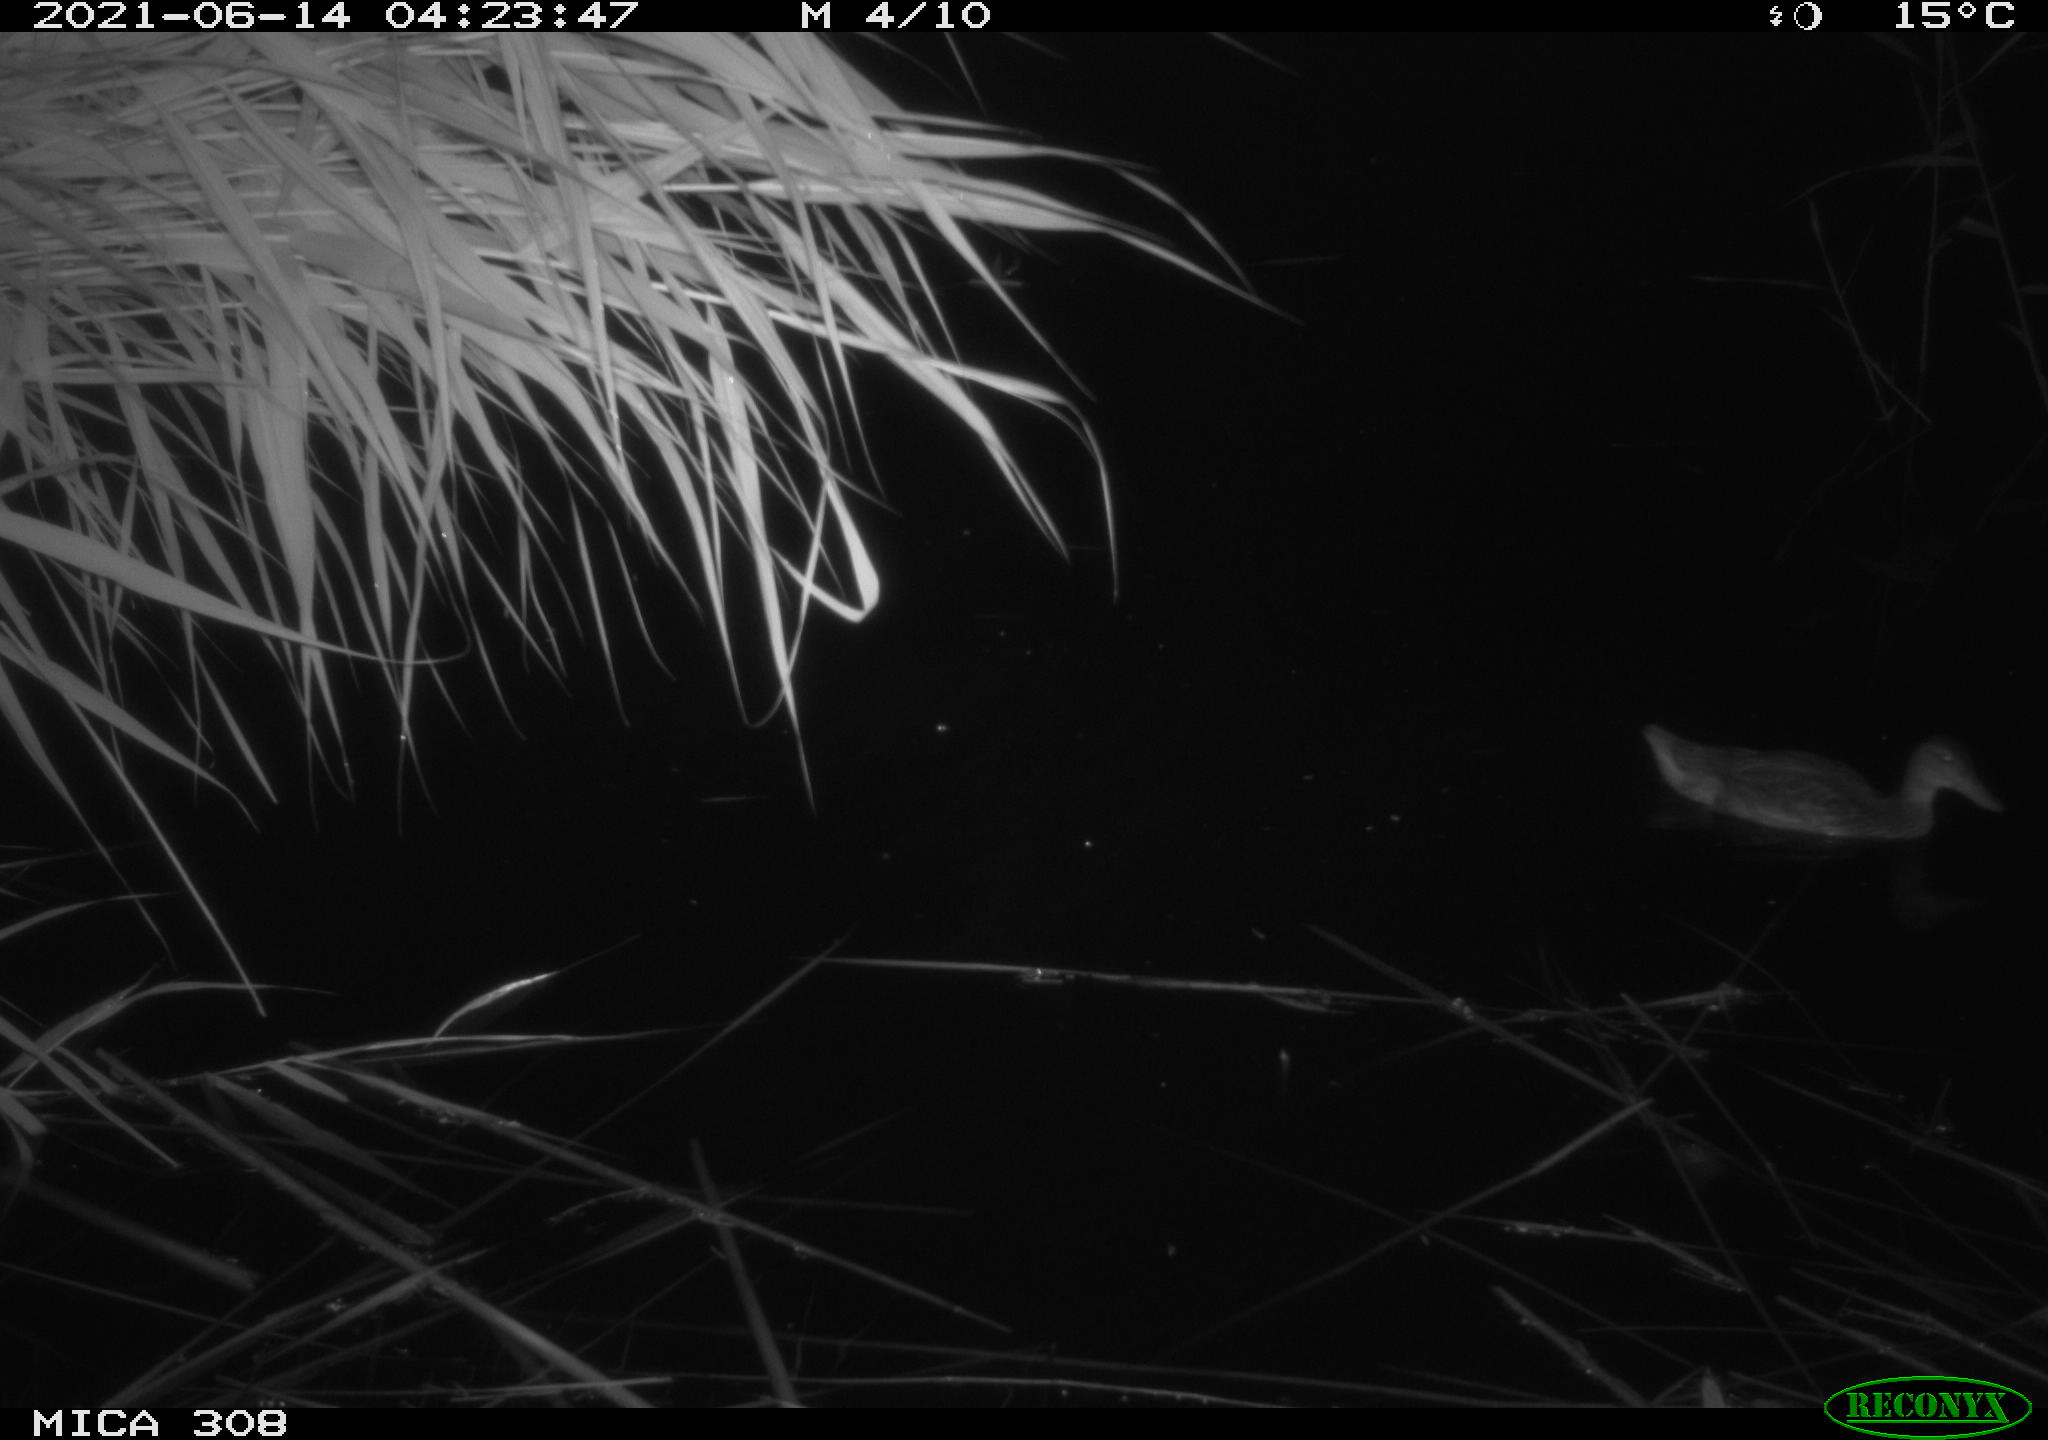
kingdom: Animalia
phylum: Chordata
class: Aves
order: Anseriformes
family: Anatidae
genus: Anas
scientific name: Anas platyrhynchos
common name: Mallard
